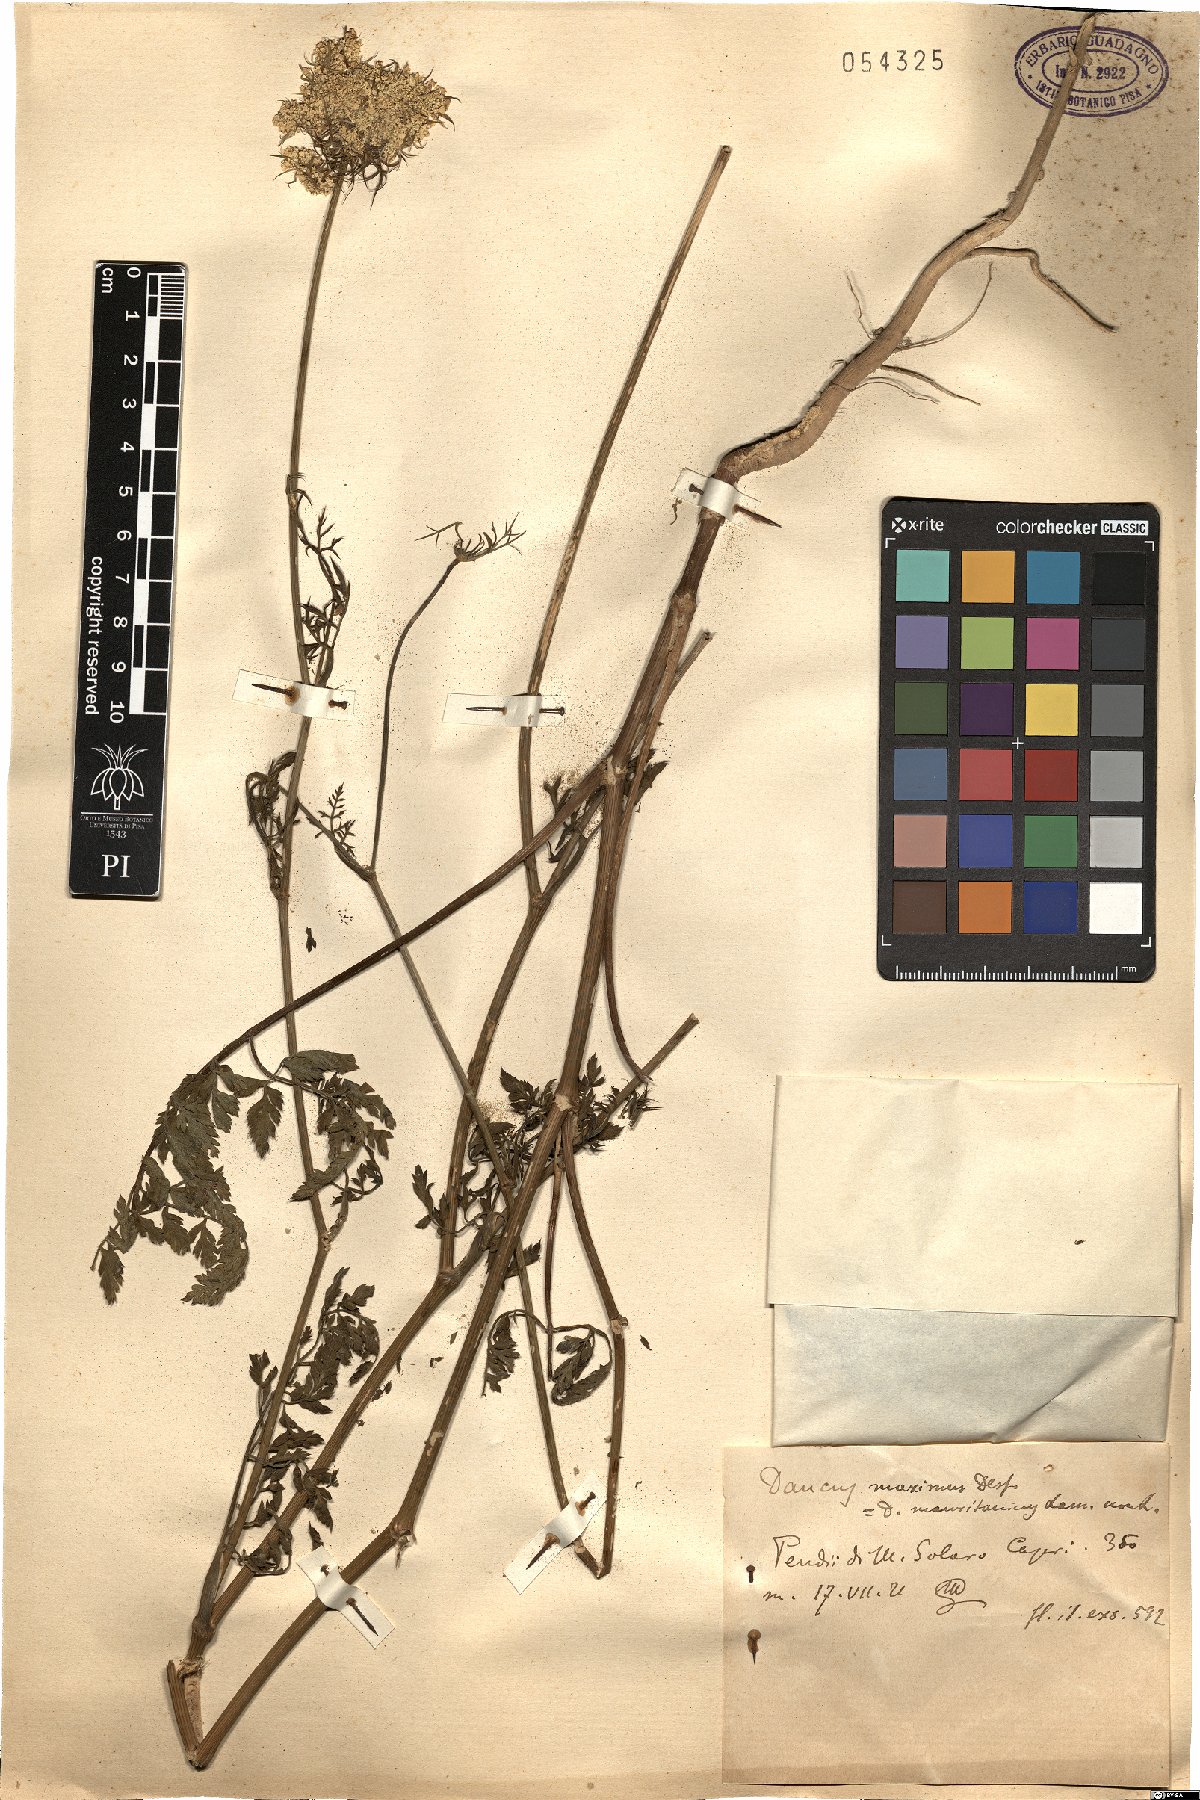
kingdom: Plantae
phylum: Tracheophyta
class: Magnoliopsida
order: Apiales
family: Apiaceae
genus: Daucus
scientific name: Daucus carota
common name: Wild carrot
